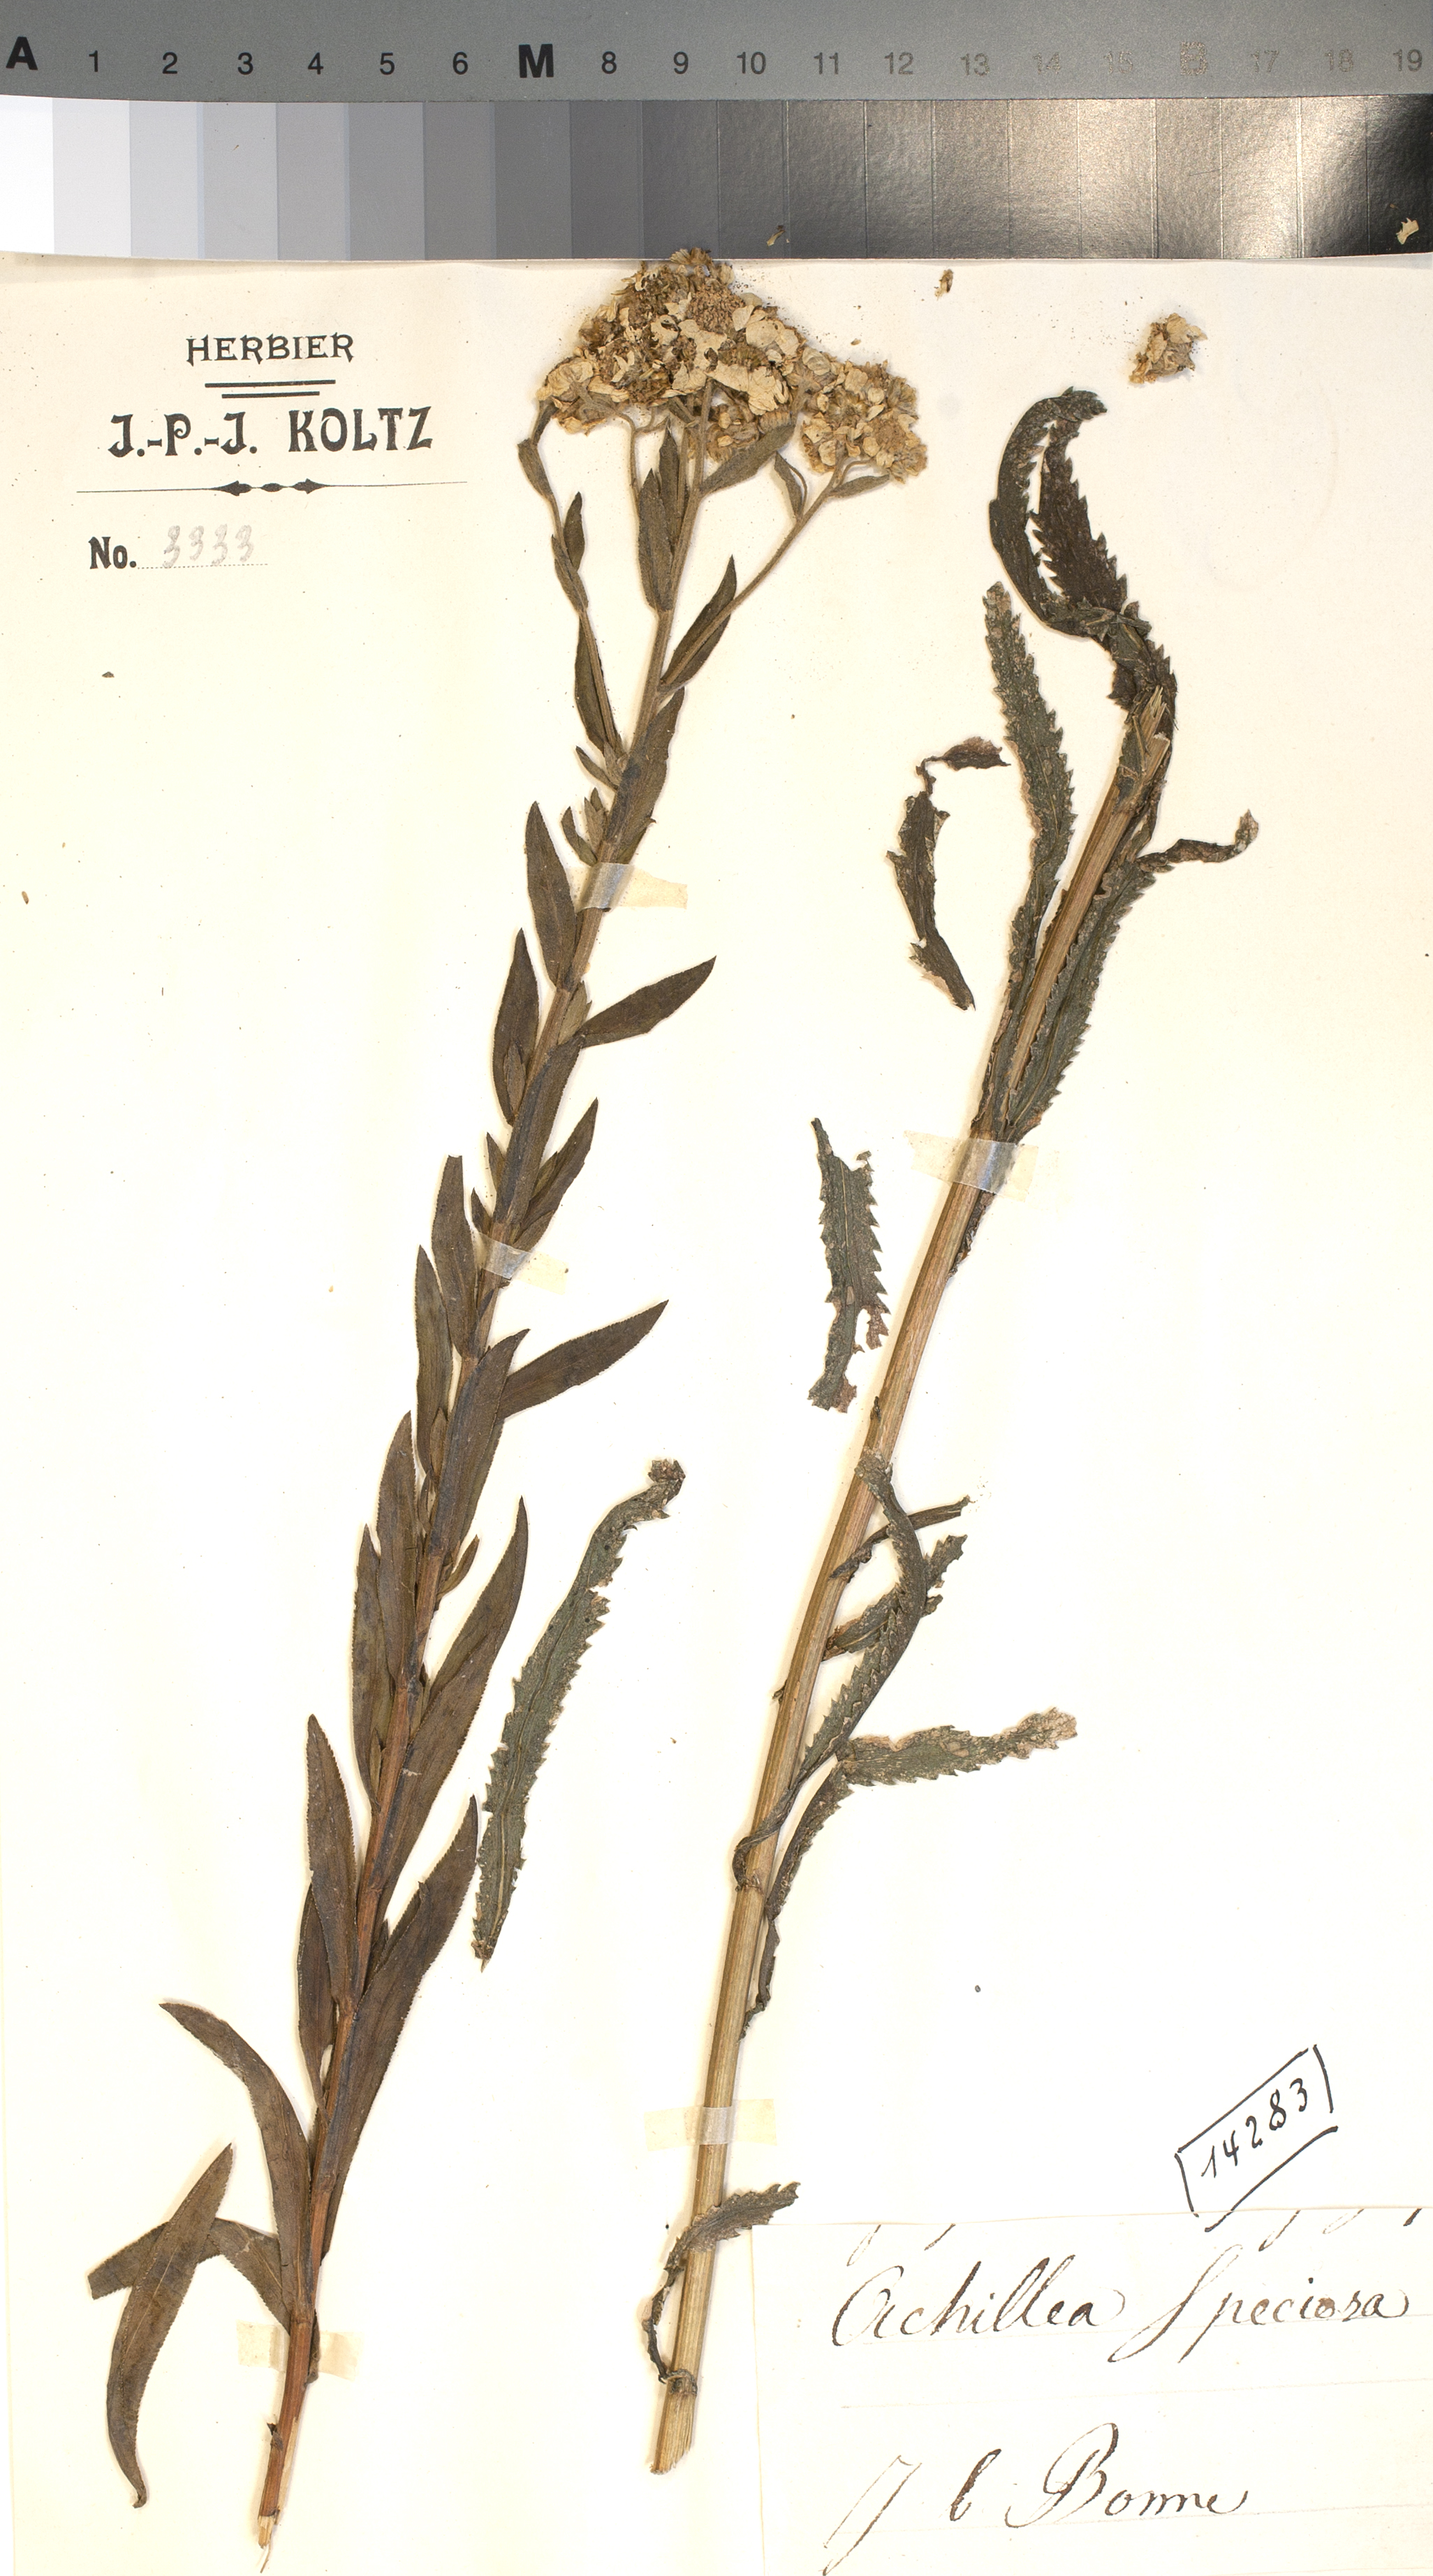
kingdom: Plantae
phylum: Tracheophyta
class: Magnoliopsida
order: Asterales
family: Asteraceae
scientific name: Asteraceae
